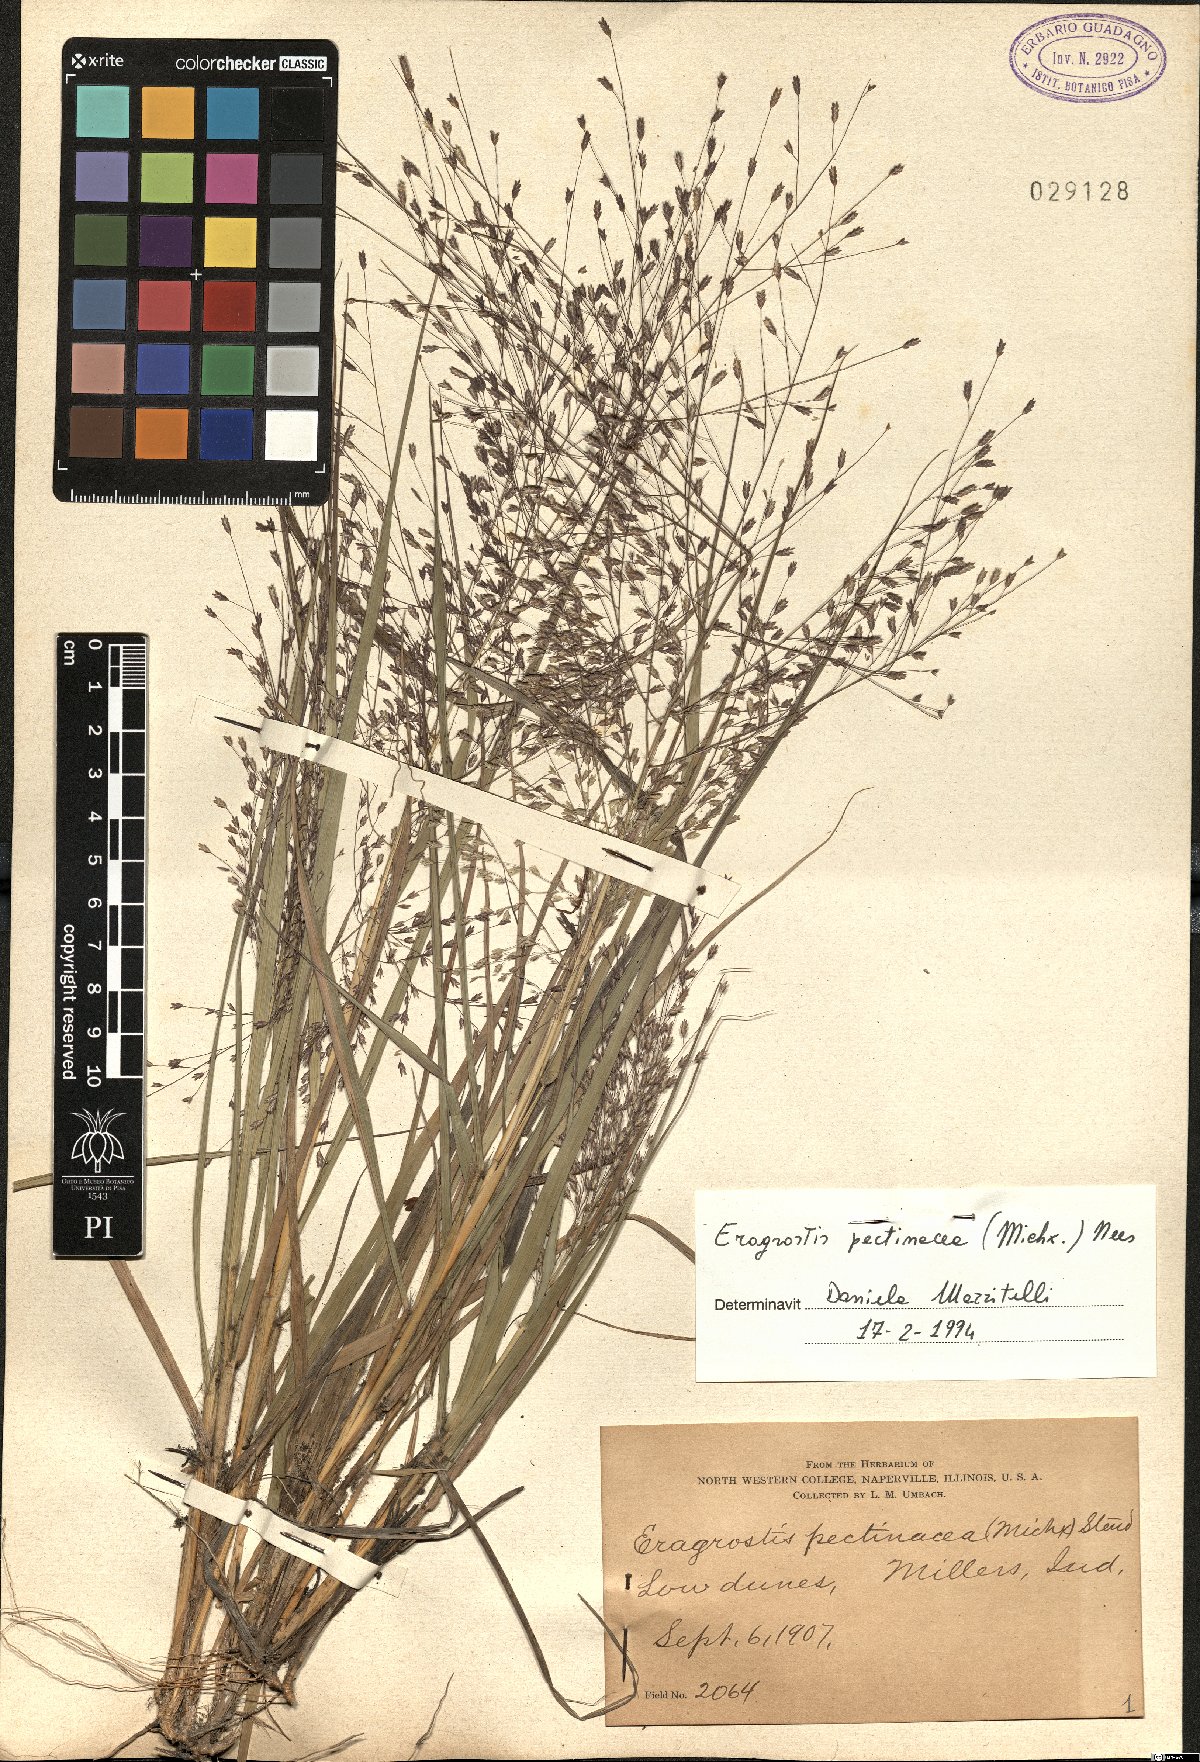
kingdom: Plantae
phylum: Tracheophyta
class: Liliopsida
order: Poales
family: Poaceae
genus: Eragrostis
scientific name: Eragrostis pectinacea
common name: Tufted lovegrass
